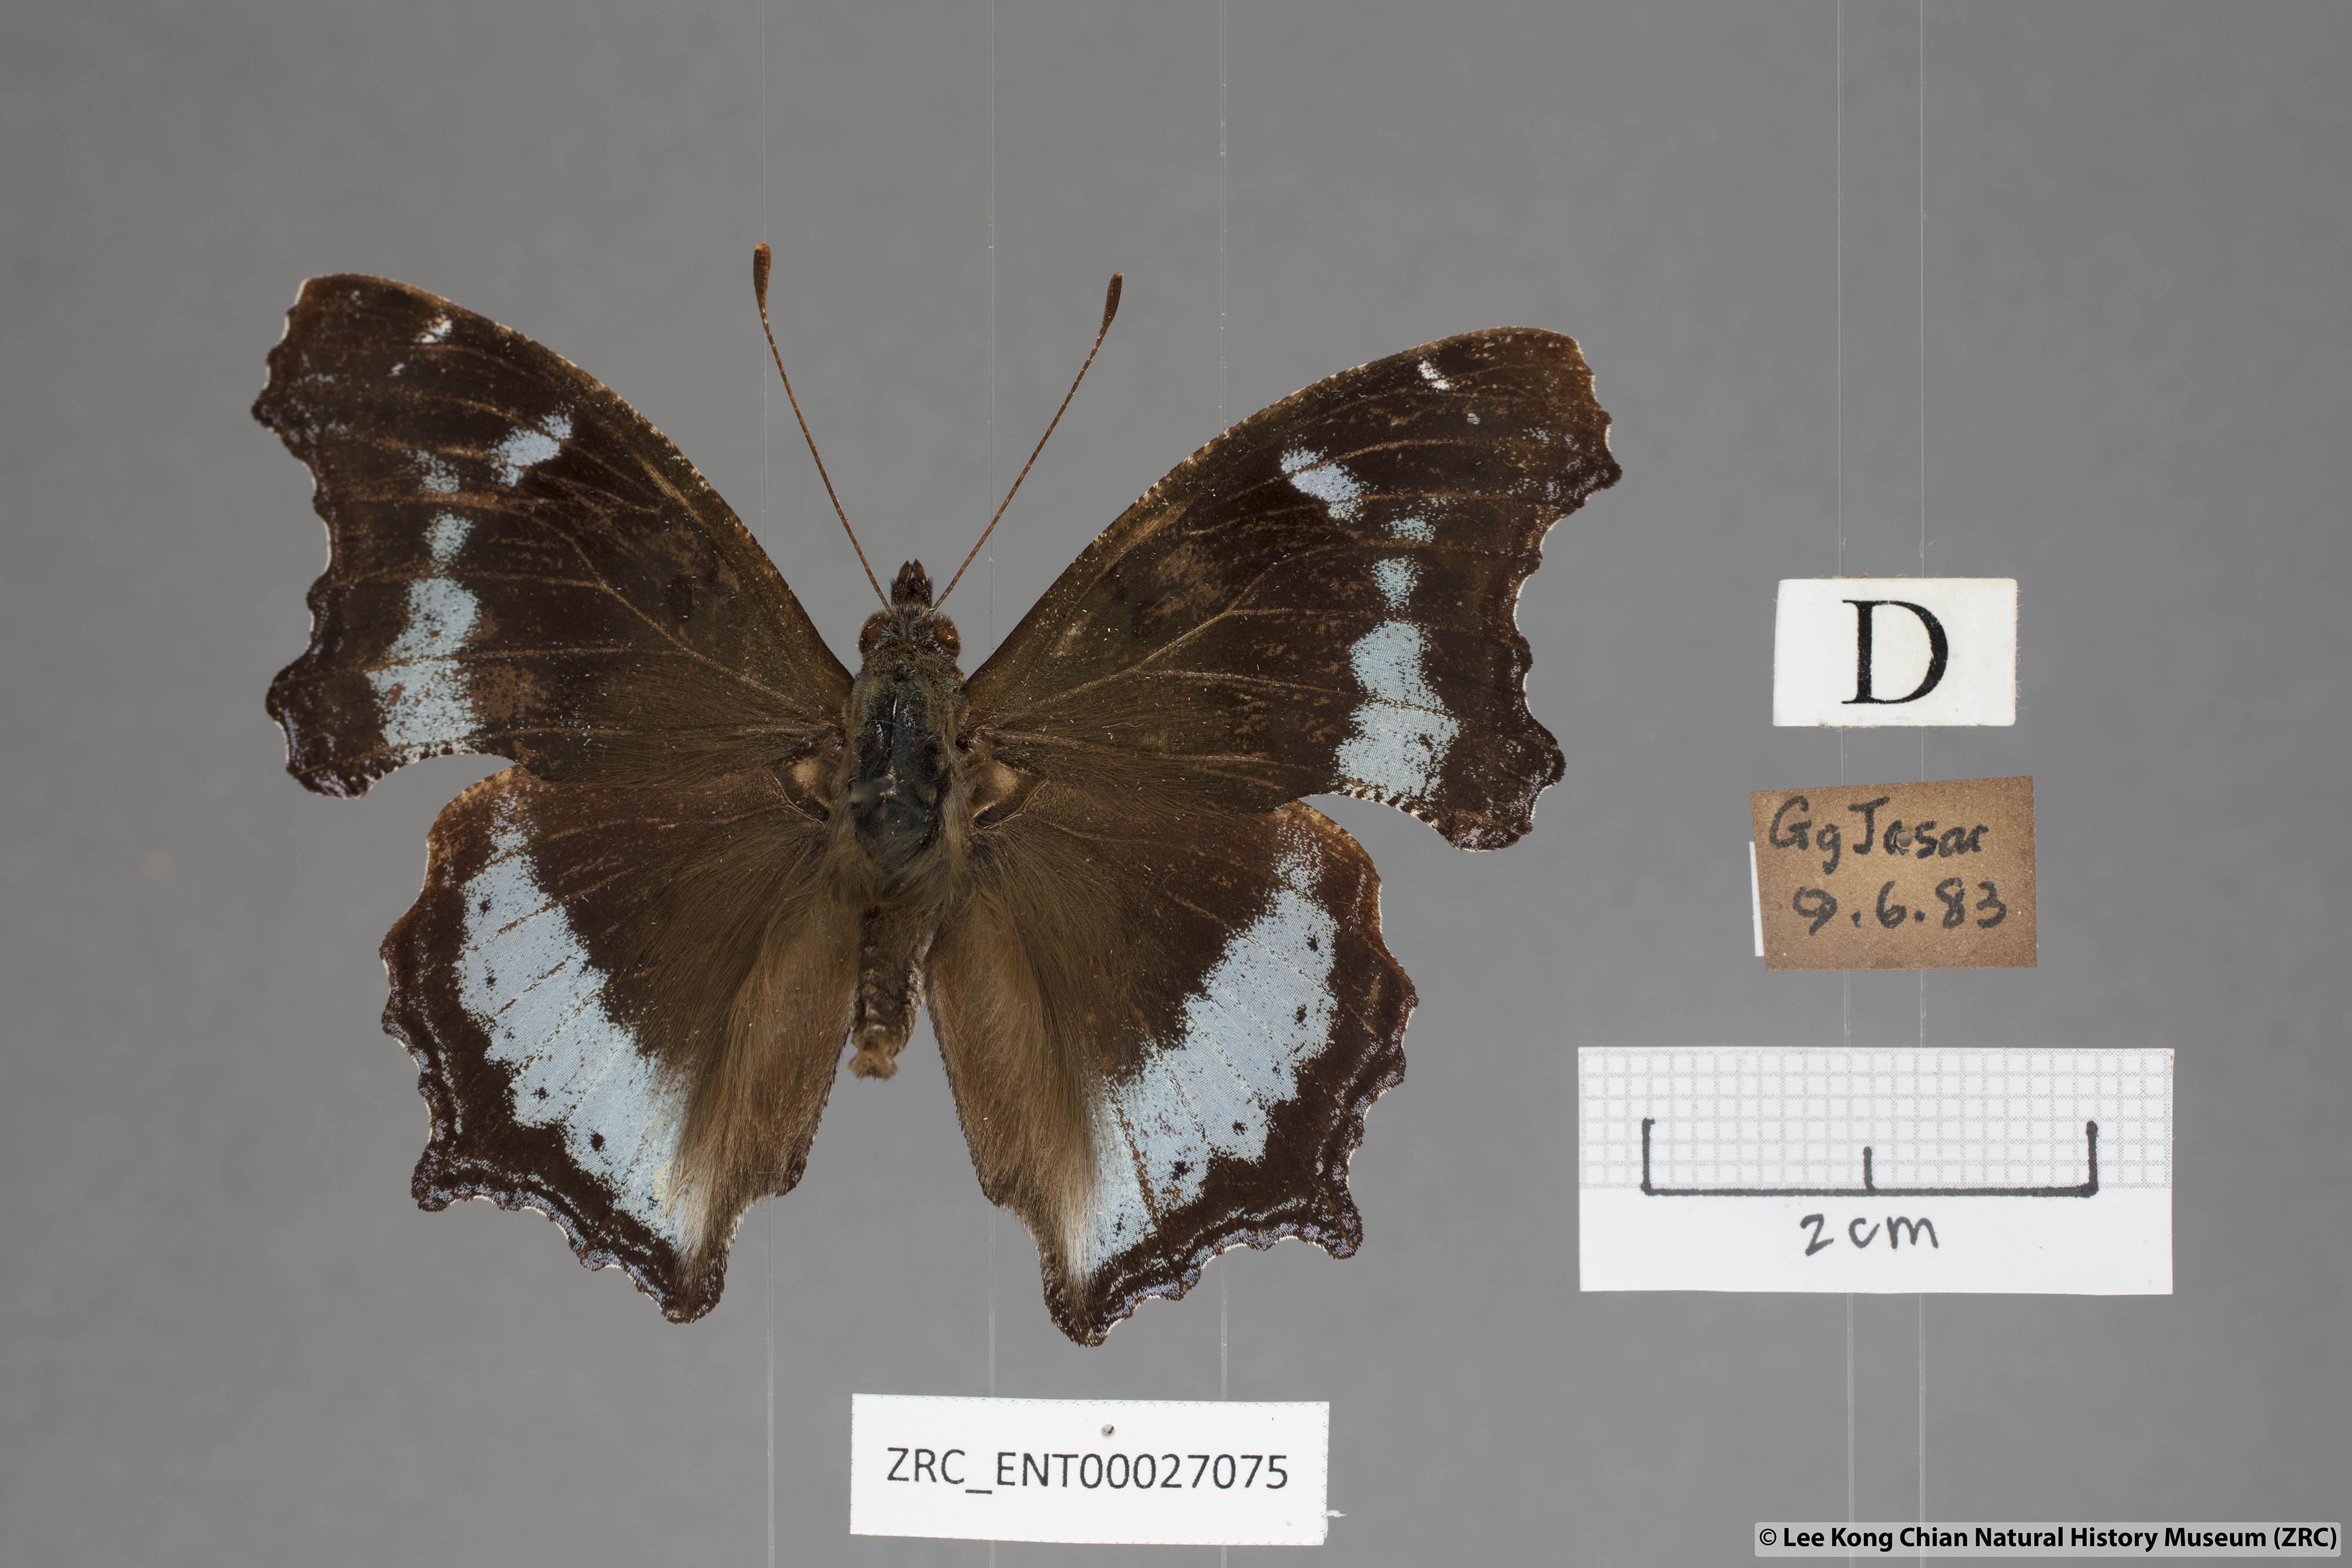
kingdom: Animalia
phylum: Arthropoda
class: Insecta
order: Lepidoptera
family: Nymphalidae
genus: Vanessa
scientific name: Vanessa Kaniska canace
